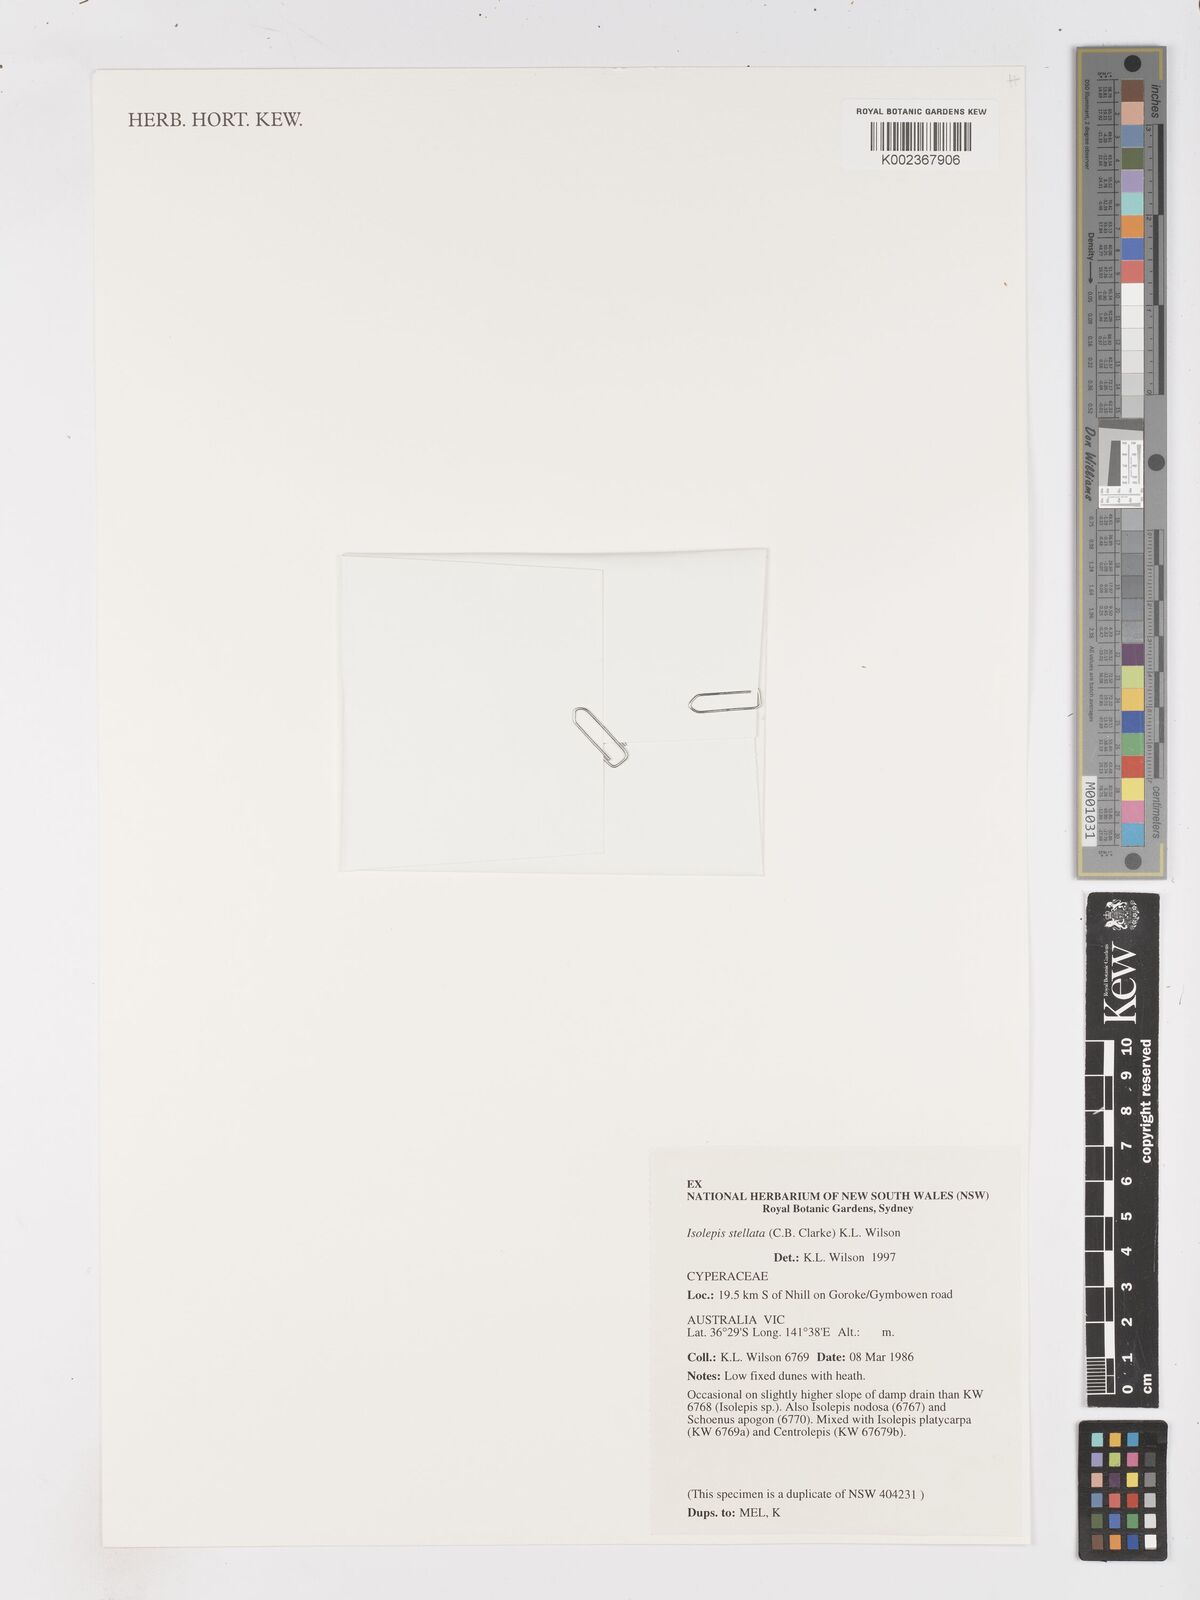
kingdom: Plantae
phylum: Tracheophyta
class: Liliopsida
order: Poales
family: Cyperaceae
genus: Isolepis
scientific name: Isolepis stellata
